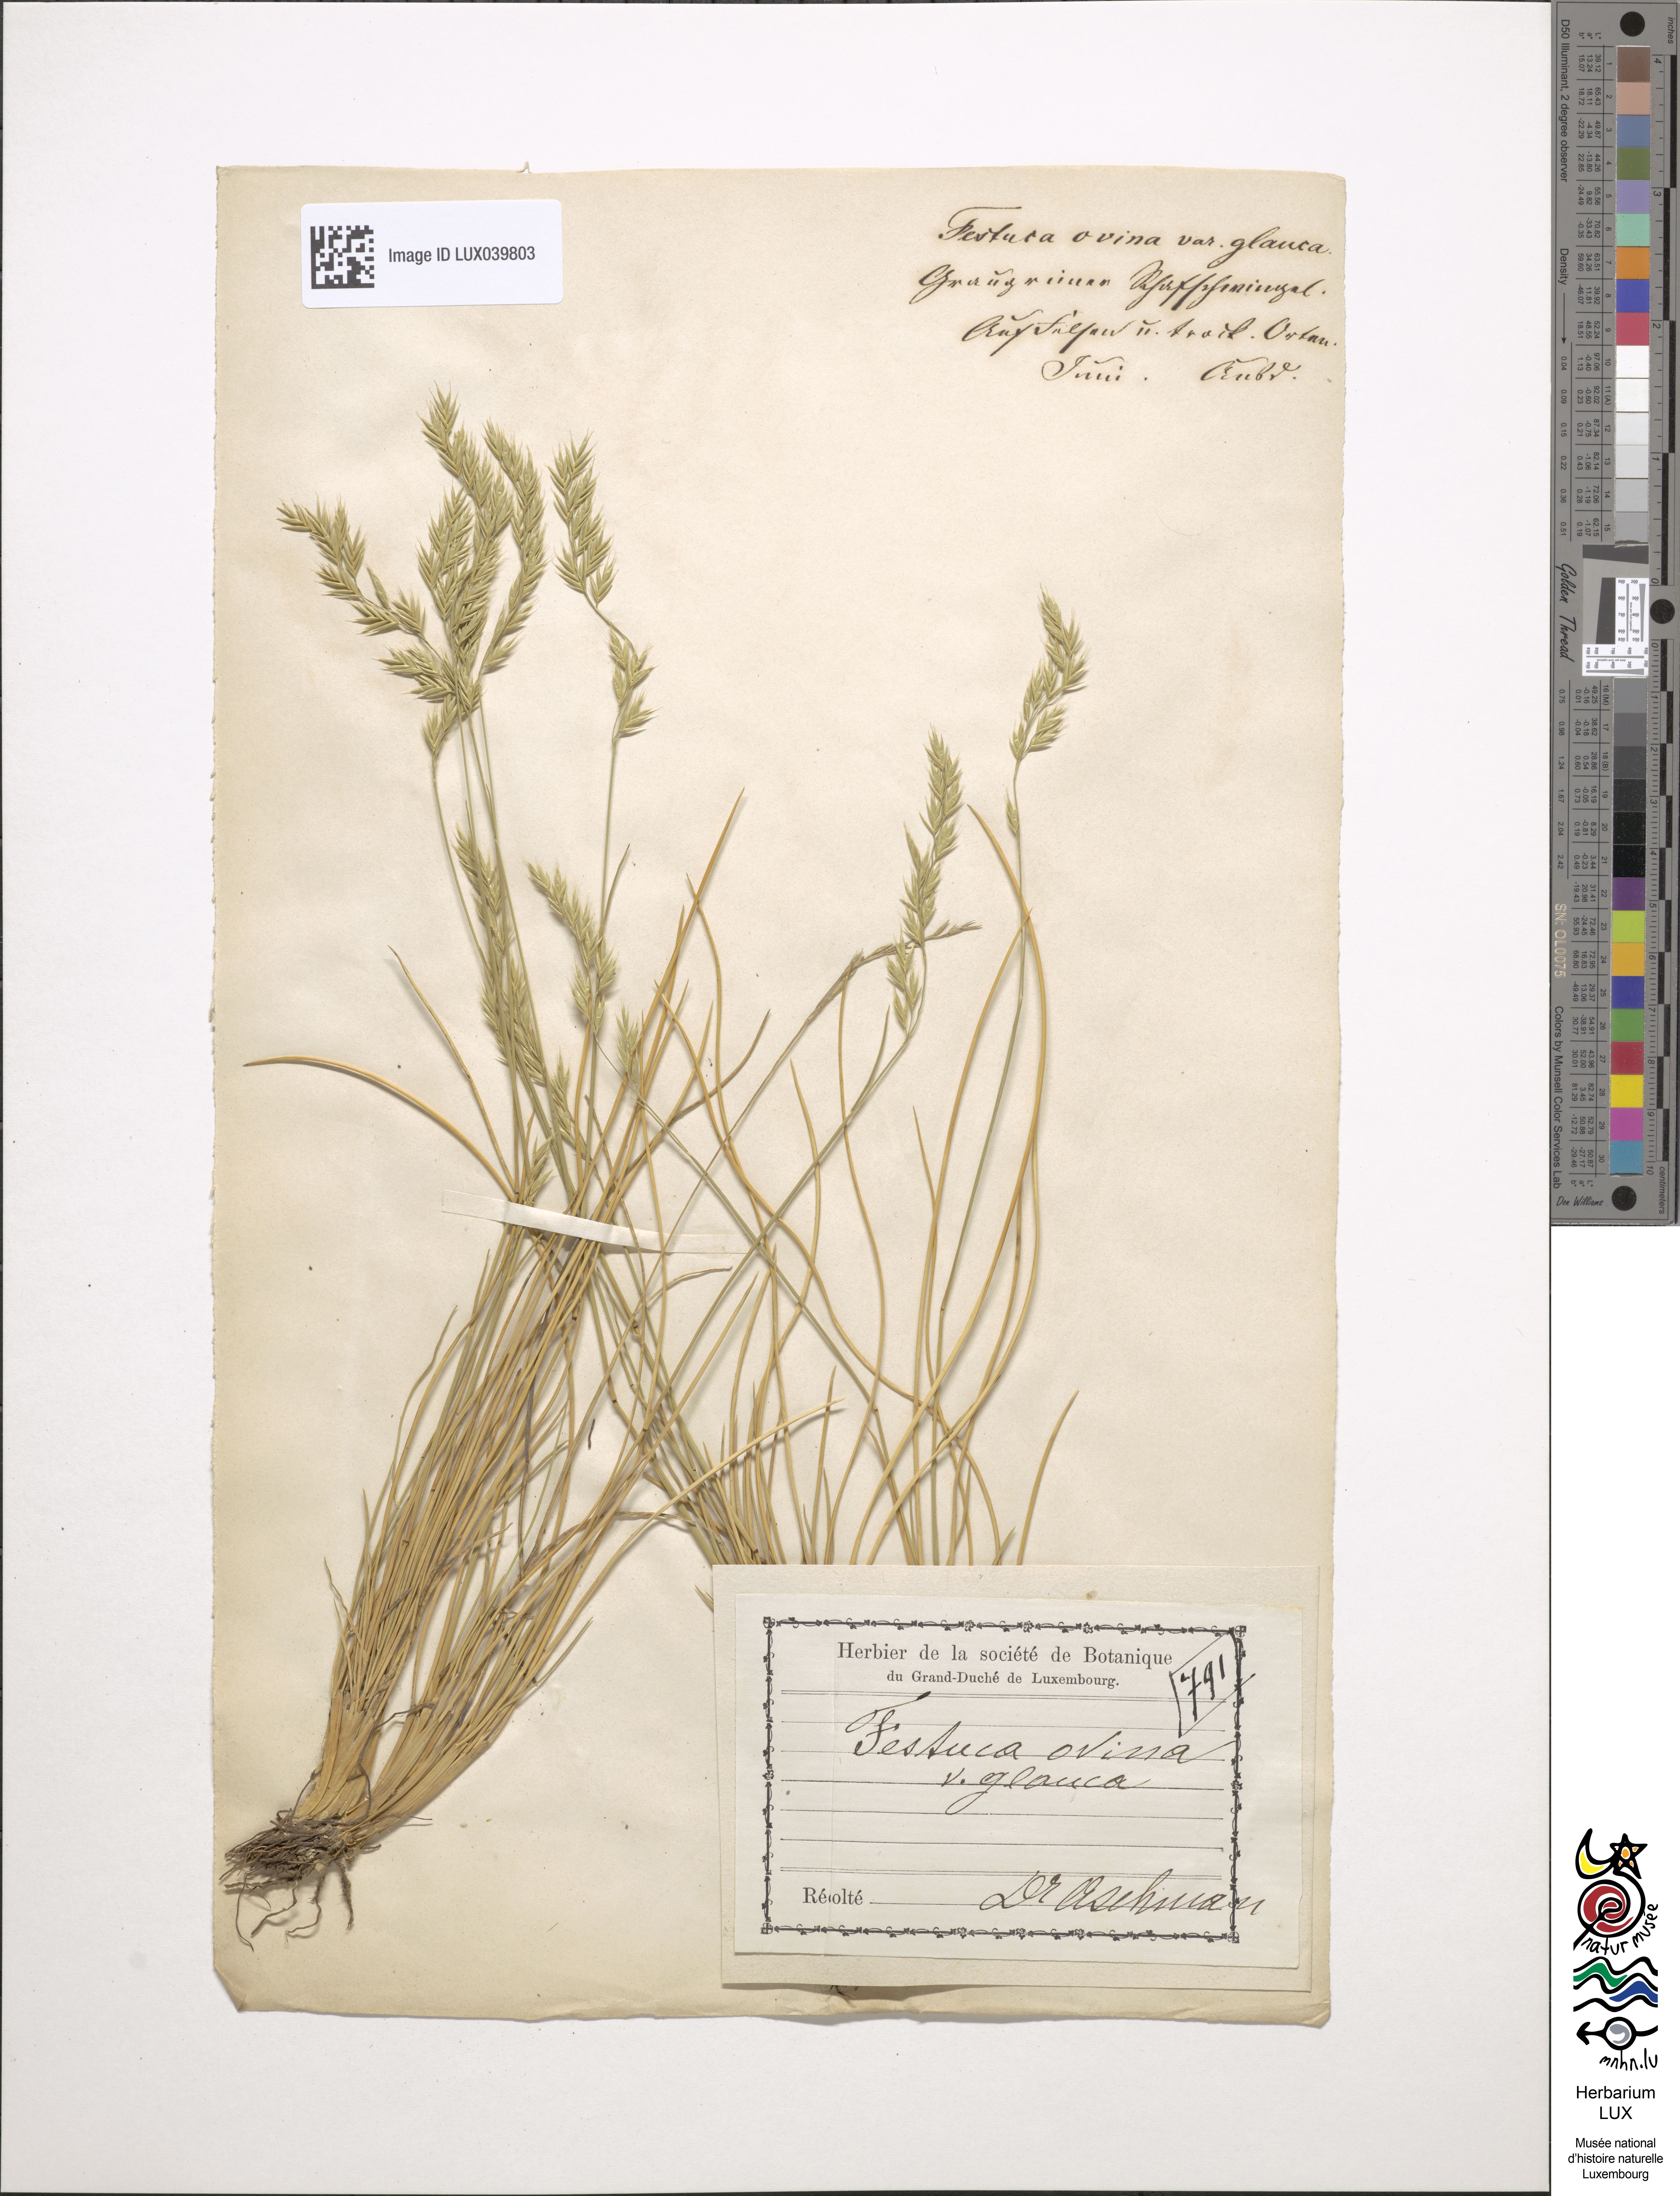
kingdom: Plantae
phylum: Tracheophyta
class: Liliopsida
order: Poales
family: Poaceae
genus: Festuca
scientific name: Festuca ovina
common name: Sheep fescue
